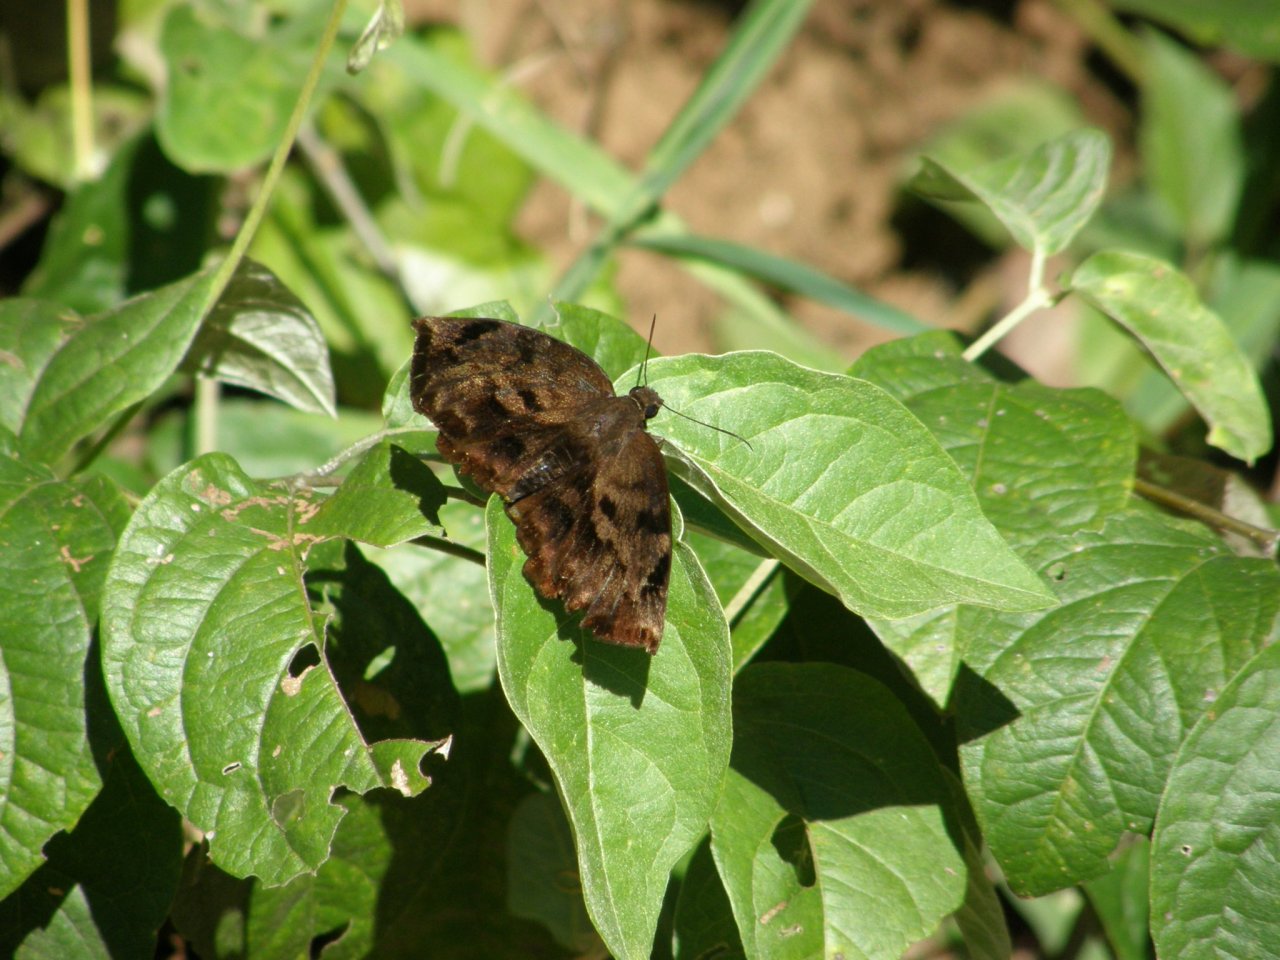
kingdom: Animalia
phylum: Arthropoda
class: Insecta
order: Lepidoptera
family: Hesperiidae
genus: Pellicia
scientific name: Pellicia dimidiata
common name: Morning Glory Pellicia
